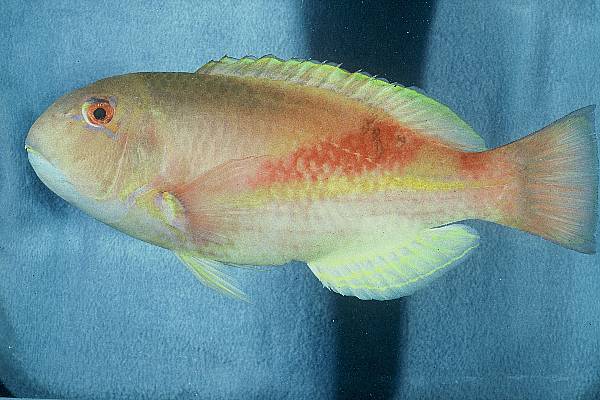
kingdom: Animalia
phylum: Chordata
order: Perciformes
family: Labridae
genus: Choerodon
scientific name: Choerodon robustus
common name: Robust tuskfish
